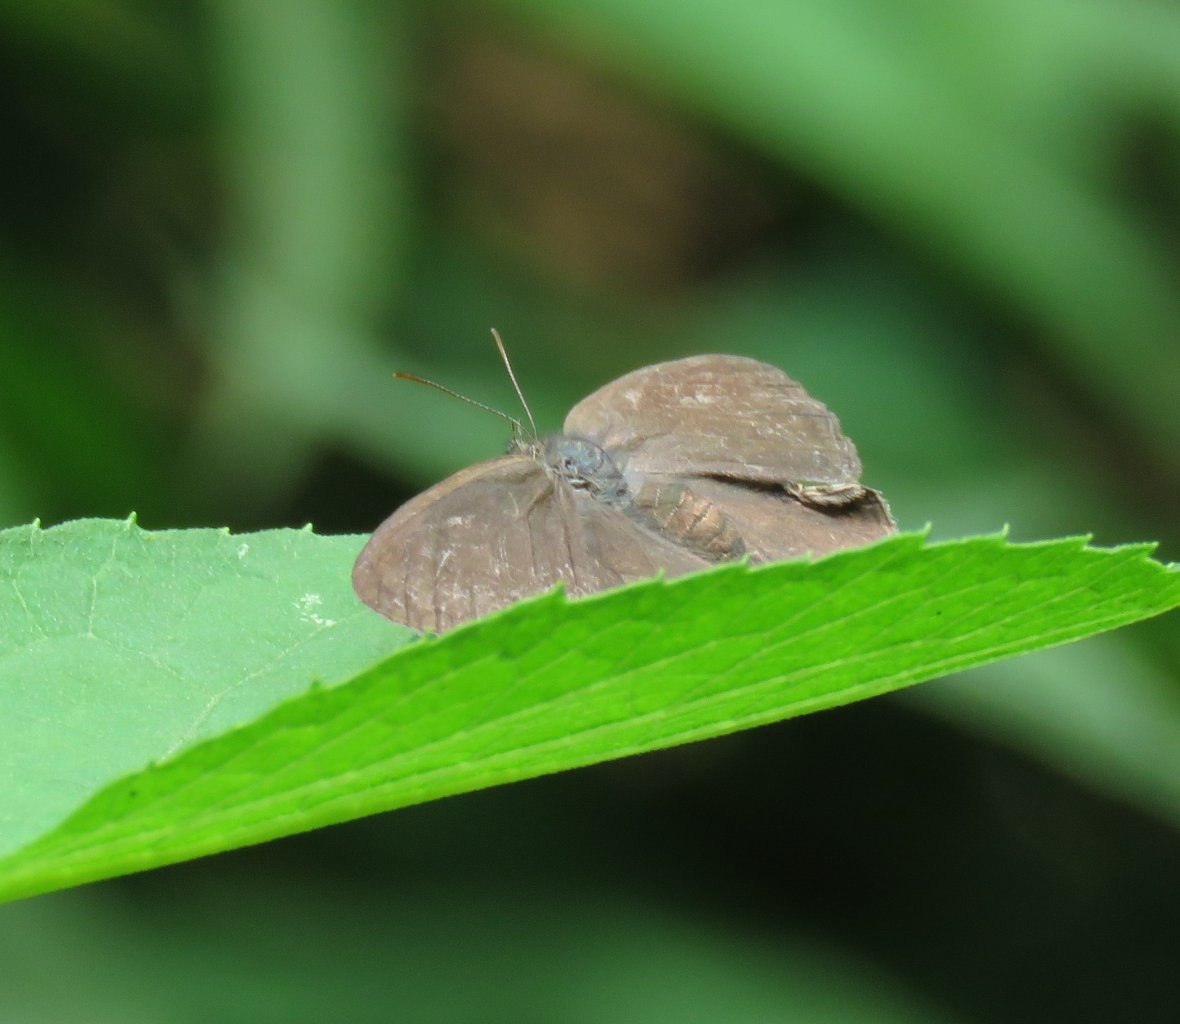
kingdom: Animalia
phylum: Arthropoda
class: Insecta
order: Lepidoptera
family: Nymphalidae
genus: Hermeuptychia
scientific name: Hermeuptychia hermes
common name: Carolina Satyr
